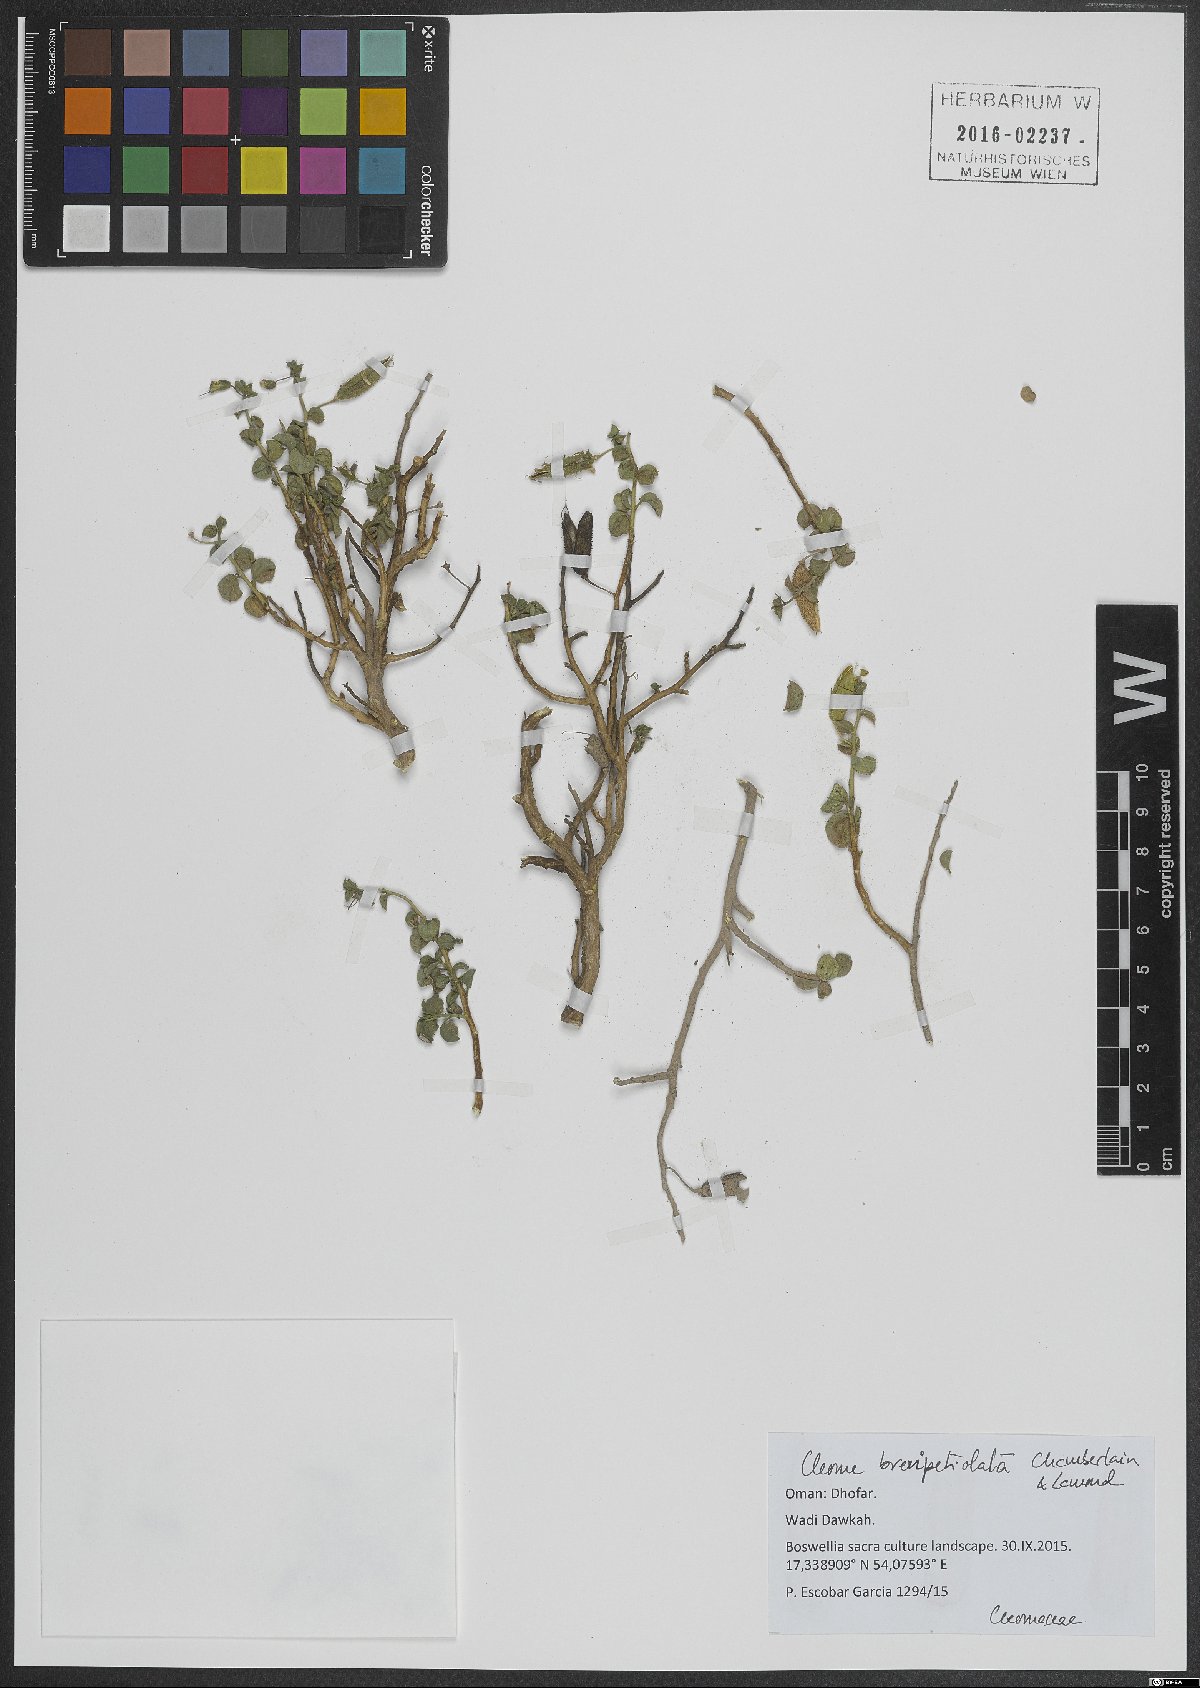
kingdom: Plantae
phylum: Tracheophyta
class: Magnoliopsida
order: Brassicales
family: Cleomaceae
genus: Rorida
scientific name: Rorida brevipetiolata
